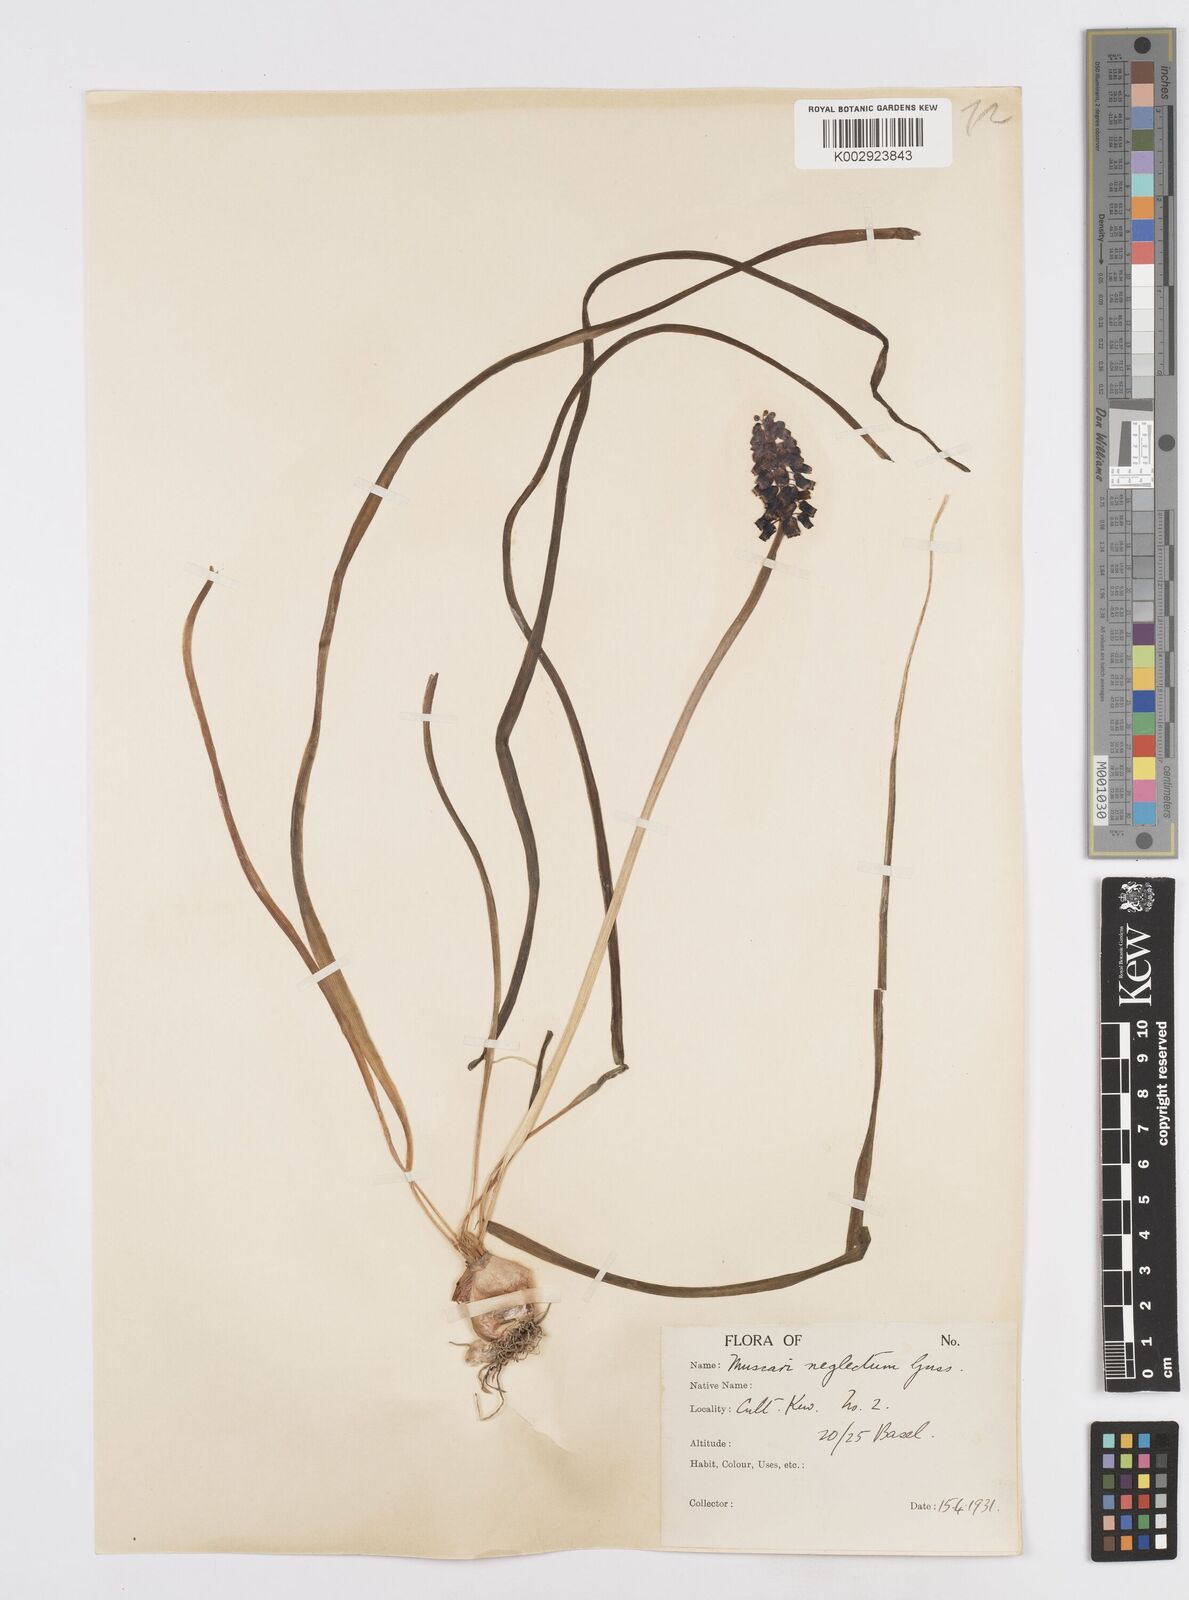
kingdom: Plantae
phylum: Tracheophyta
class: Liliopsida
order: Asparagales
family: Asparagaceae
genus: Muscari
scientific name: Muscari neglectum
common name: Grape-hyacinth
